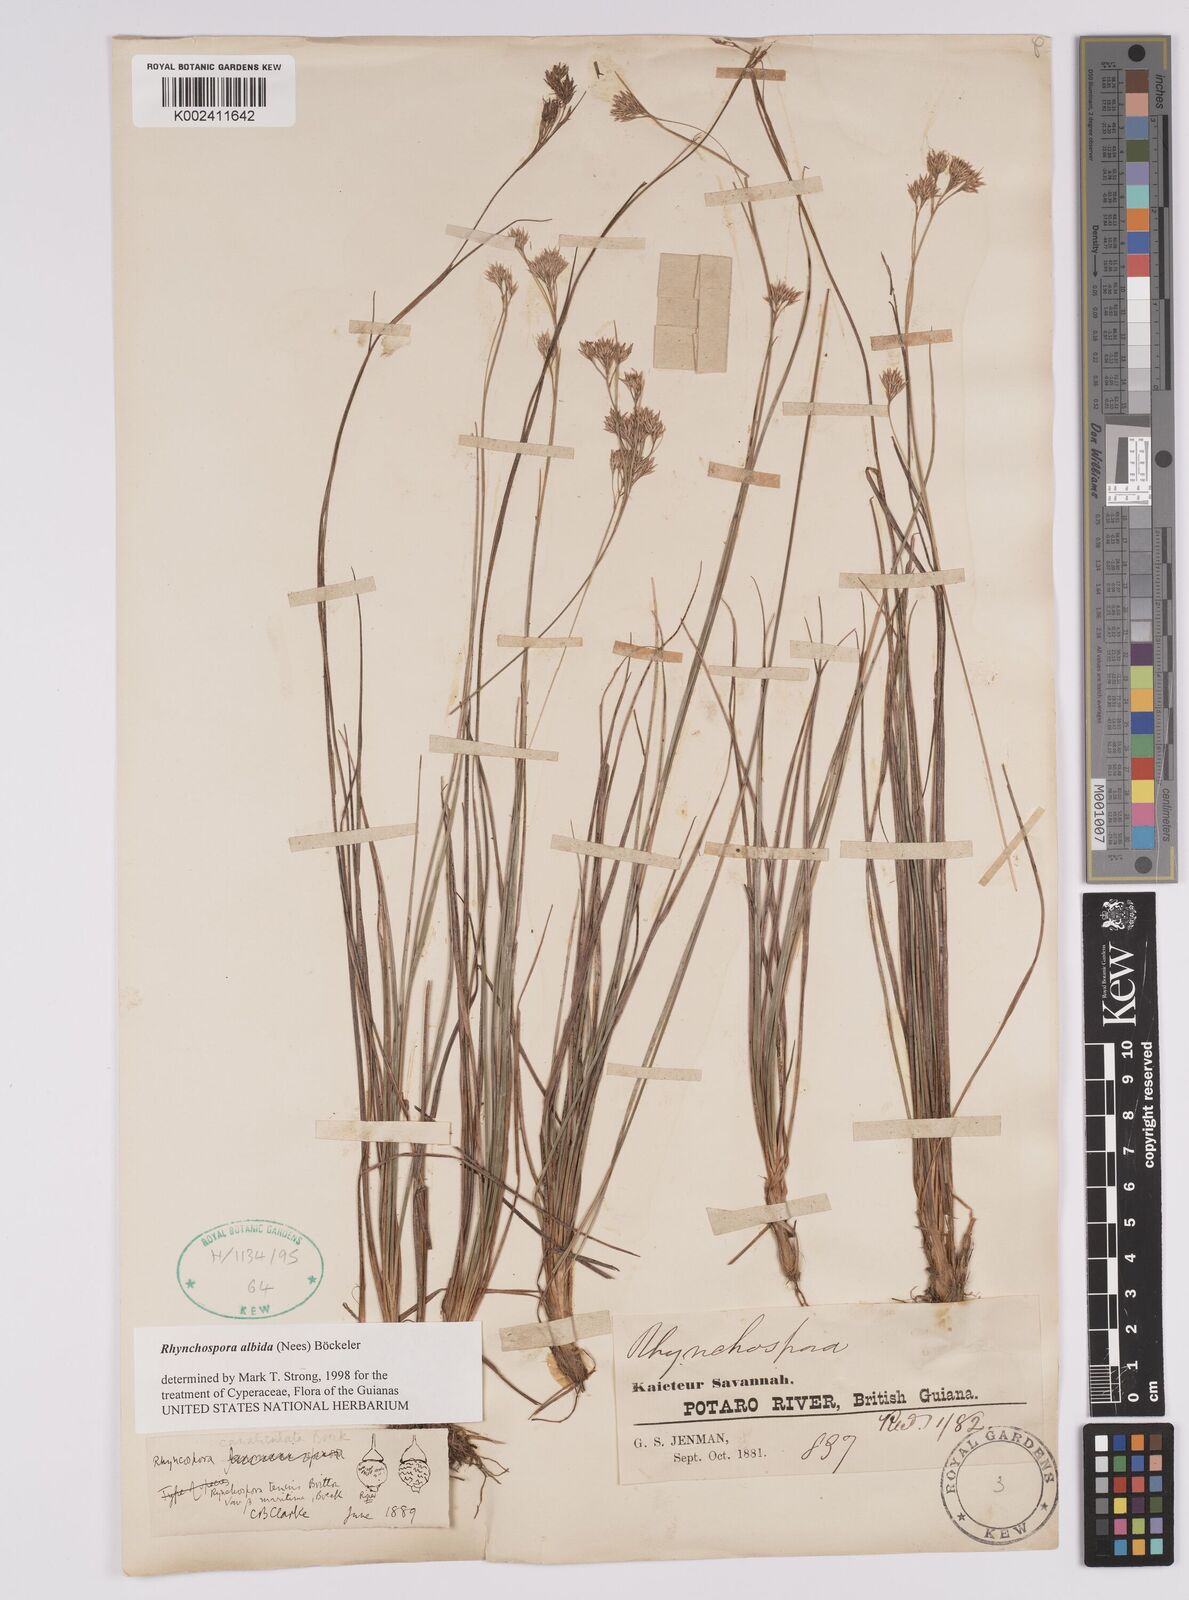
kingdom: Plantae
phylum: Tracheophyta
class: Liliopsida
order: Poales
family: Cyperaceae
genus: Rhynchospora
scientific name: Rhynchospora albida
